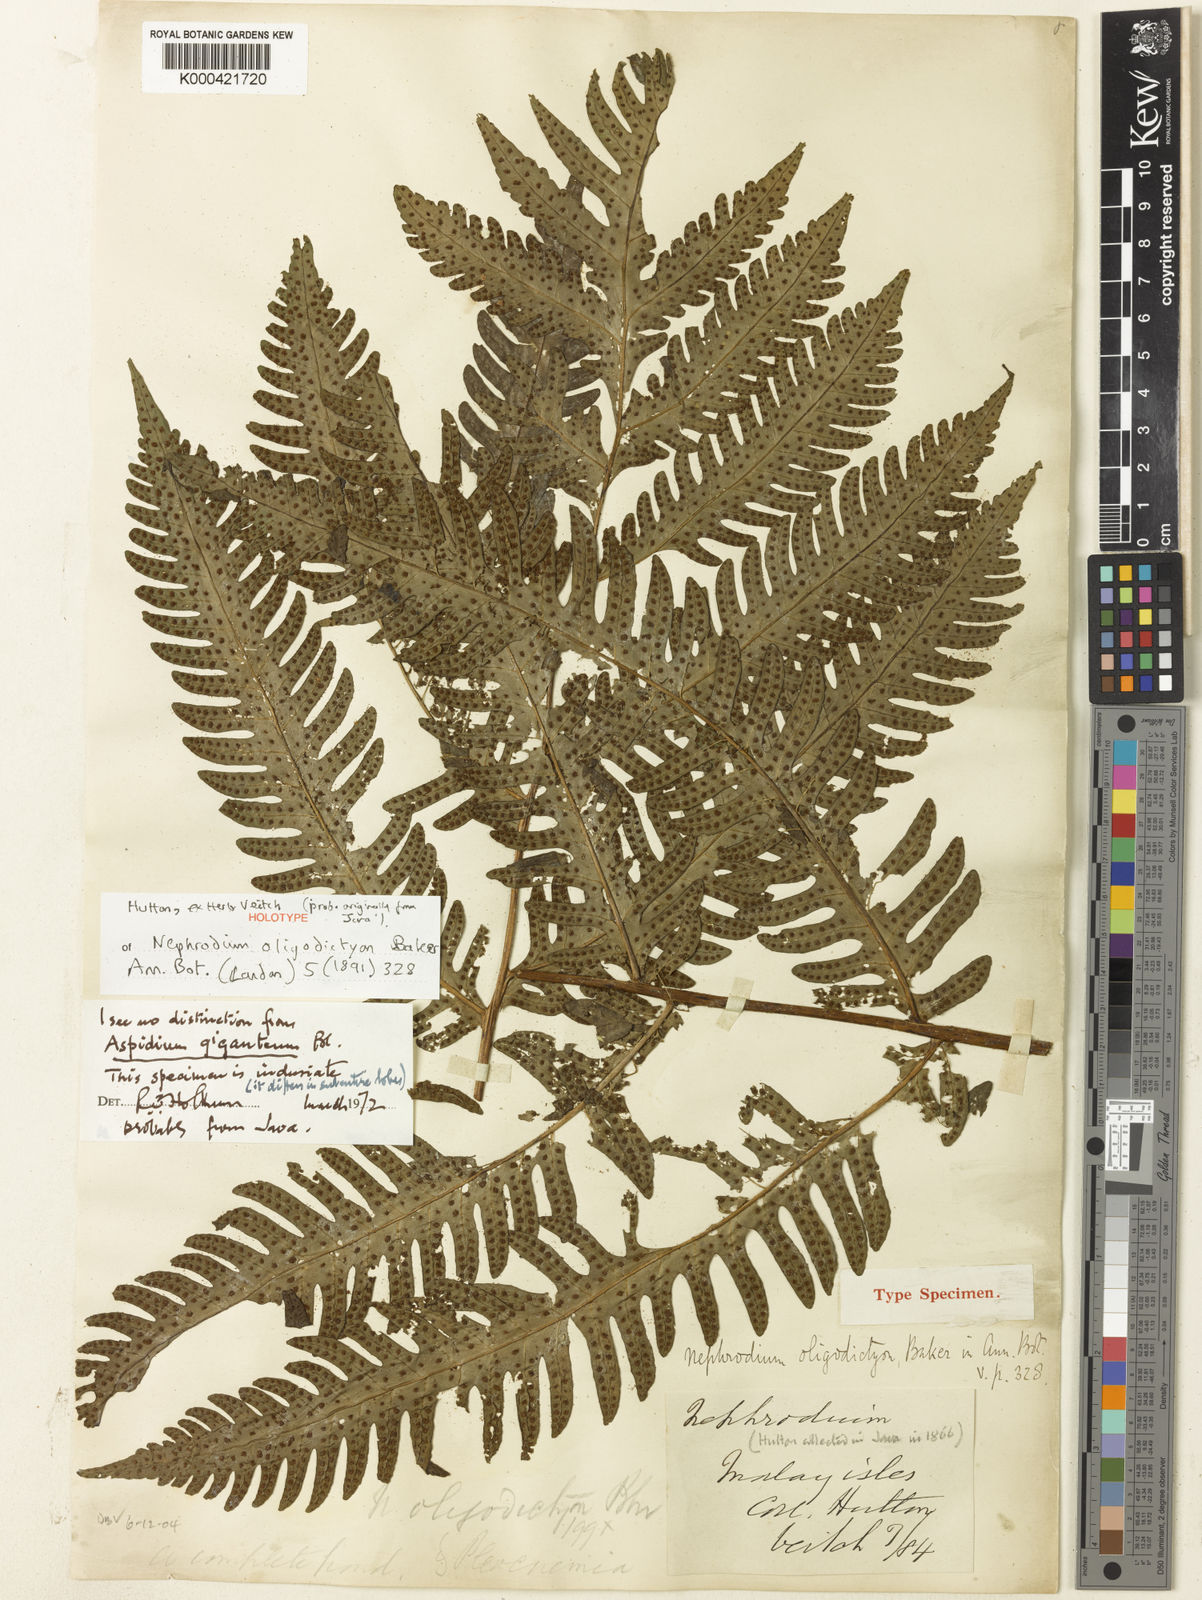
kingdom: Plantae
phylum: Tracheophyta
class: Polypodiopsida
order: Polypodiales
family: Tectariaceae
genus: Tectaria
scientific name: Tectaria gigantea
